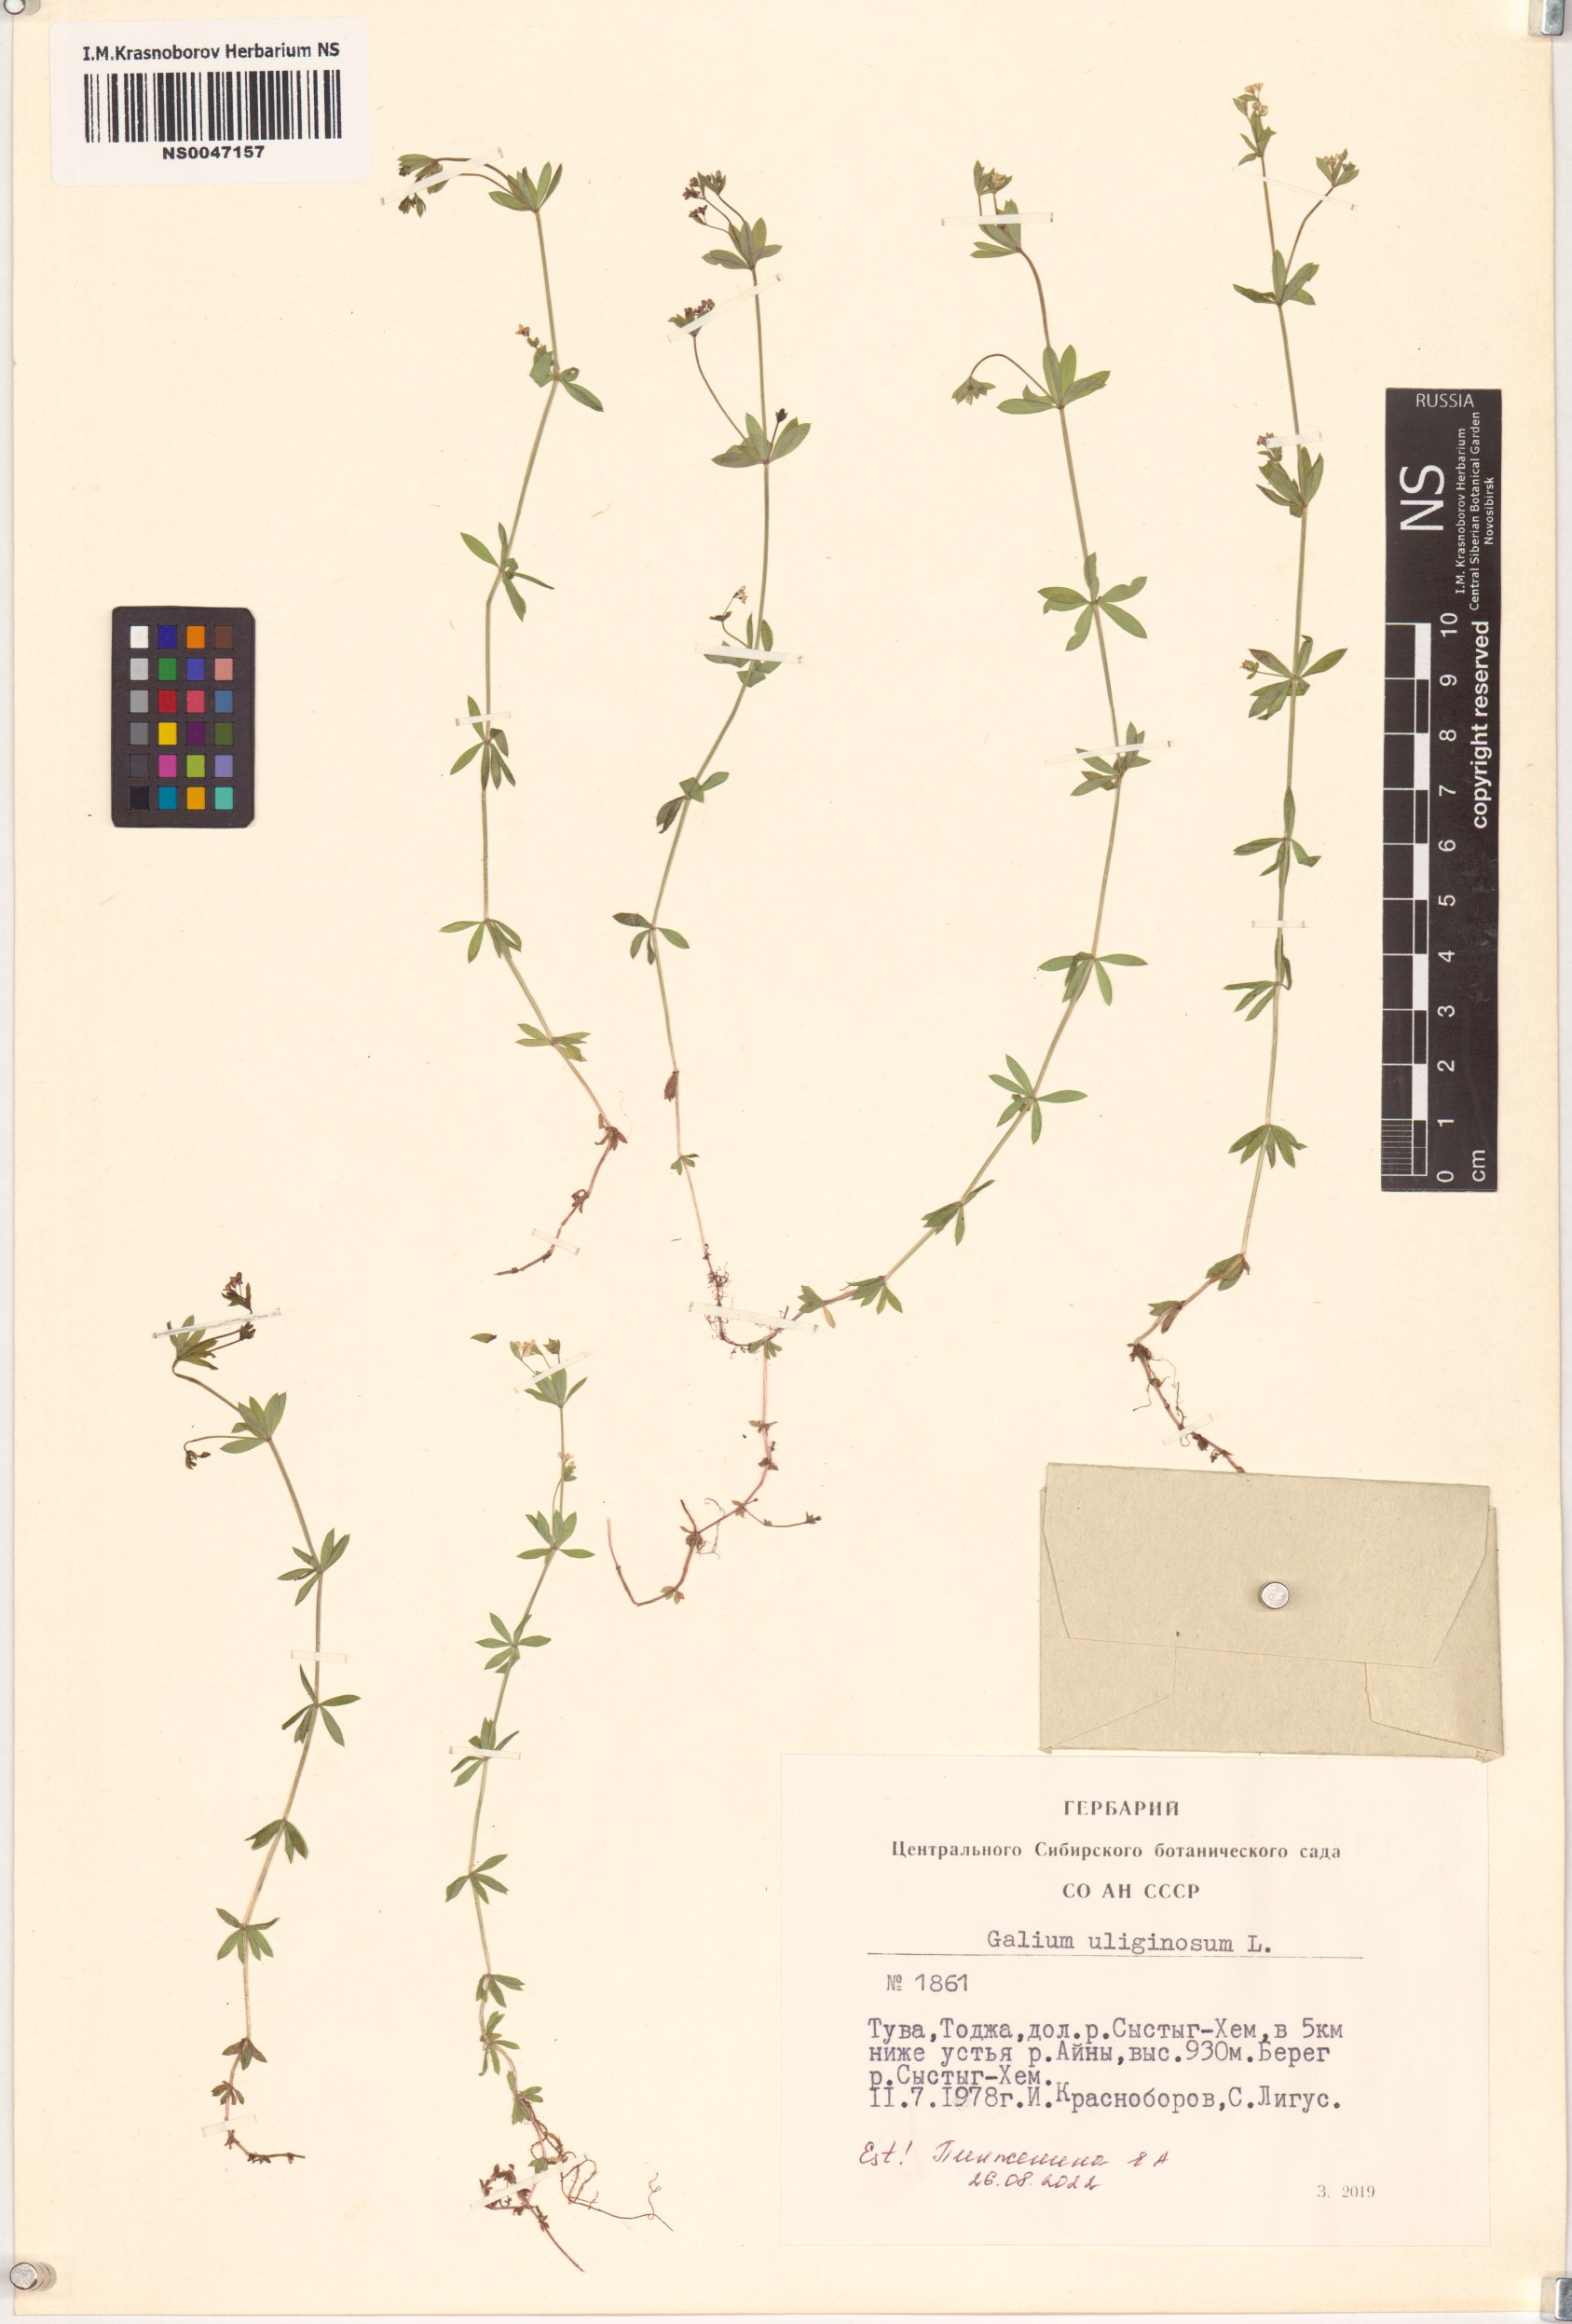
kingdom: Plantae
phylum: Tracheophyta
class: Magnoliopsida
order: Gentianales
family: Rubiaceae
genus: Galium
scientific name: Galium uliginosum
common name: Fen bedstraw
